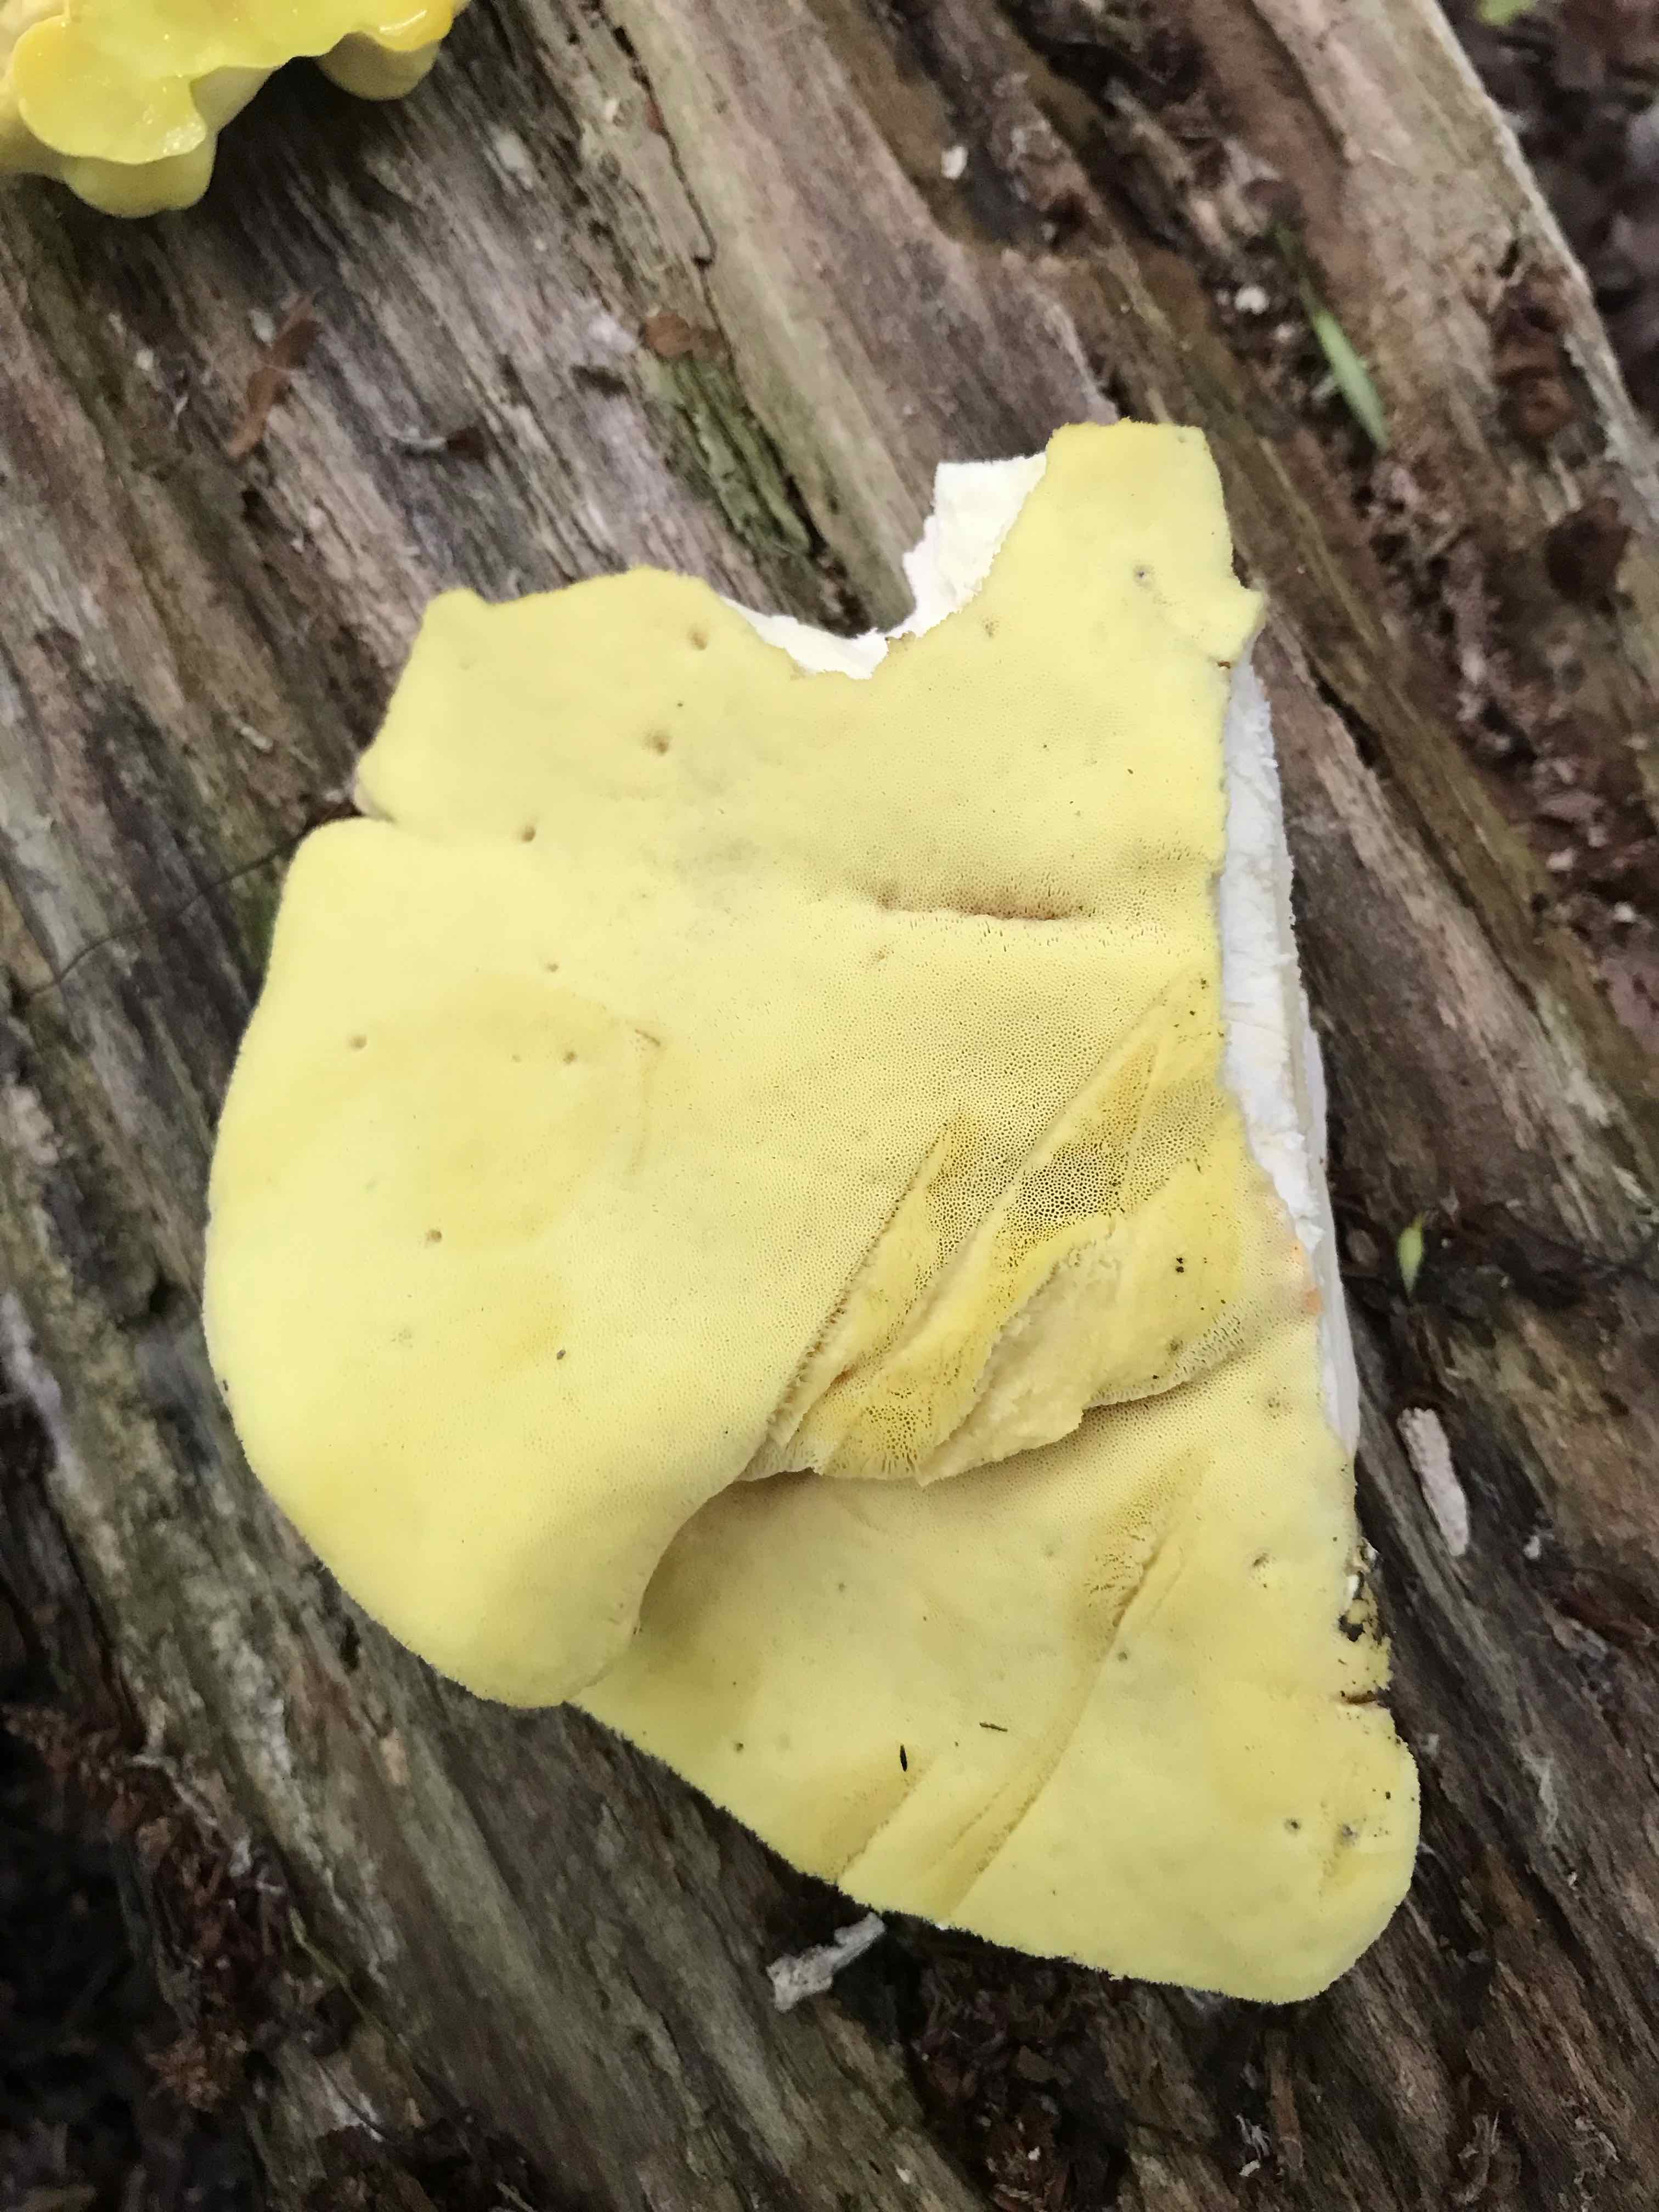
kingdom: Fungi
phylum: Basidiomycota
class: Agaricomycetes
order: Polyporales
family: Laetiporaceae
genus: Laetiporus
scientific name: Laetiporus sulphureus
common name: svovlporesvamp
